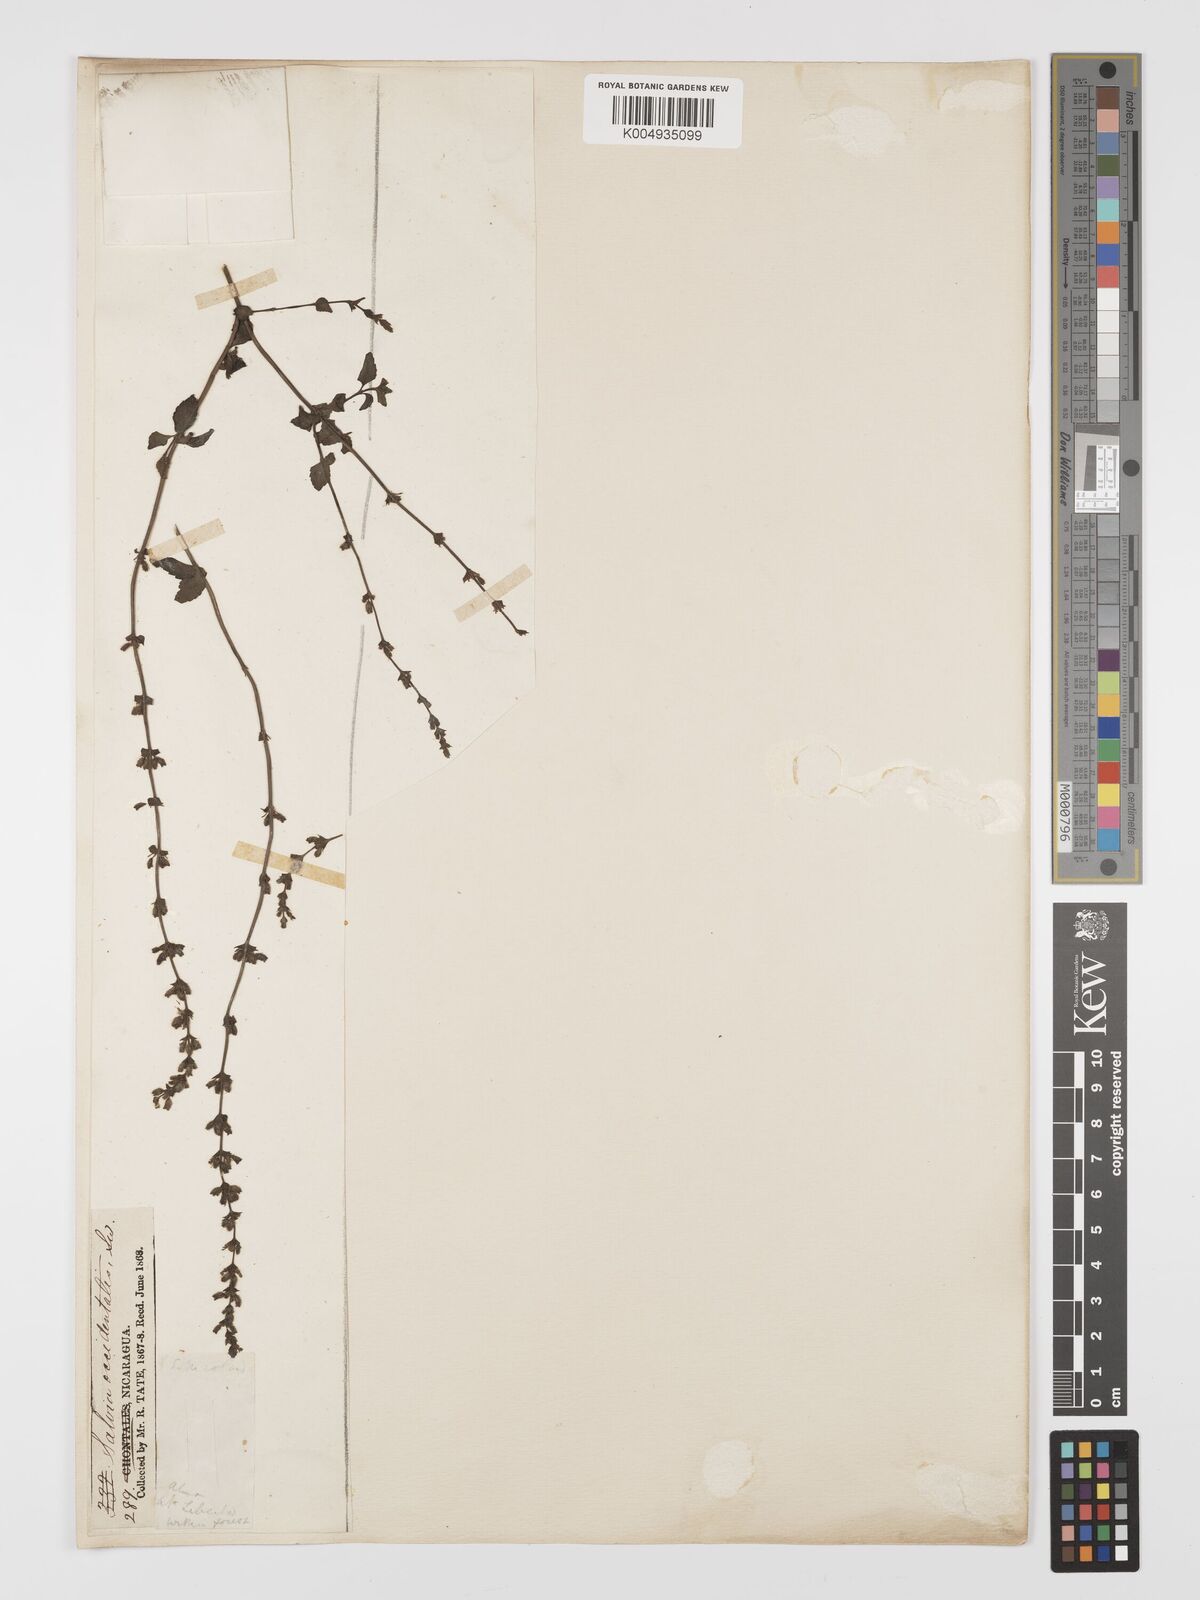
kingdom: Plantae
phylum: Tracheophyta
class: Magnoliopsida
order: Lamiales
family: Lamiaceae
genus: Salvia
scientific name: Salvia occidentalis
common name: West indian sage
